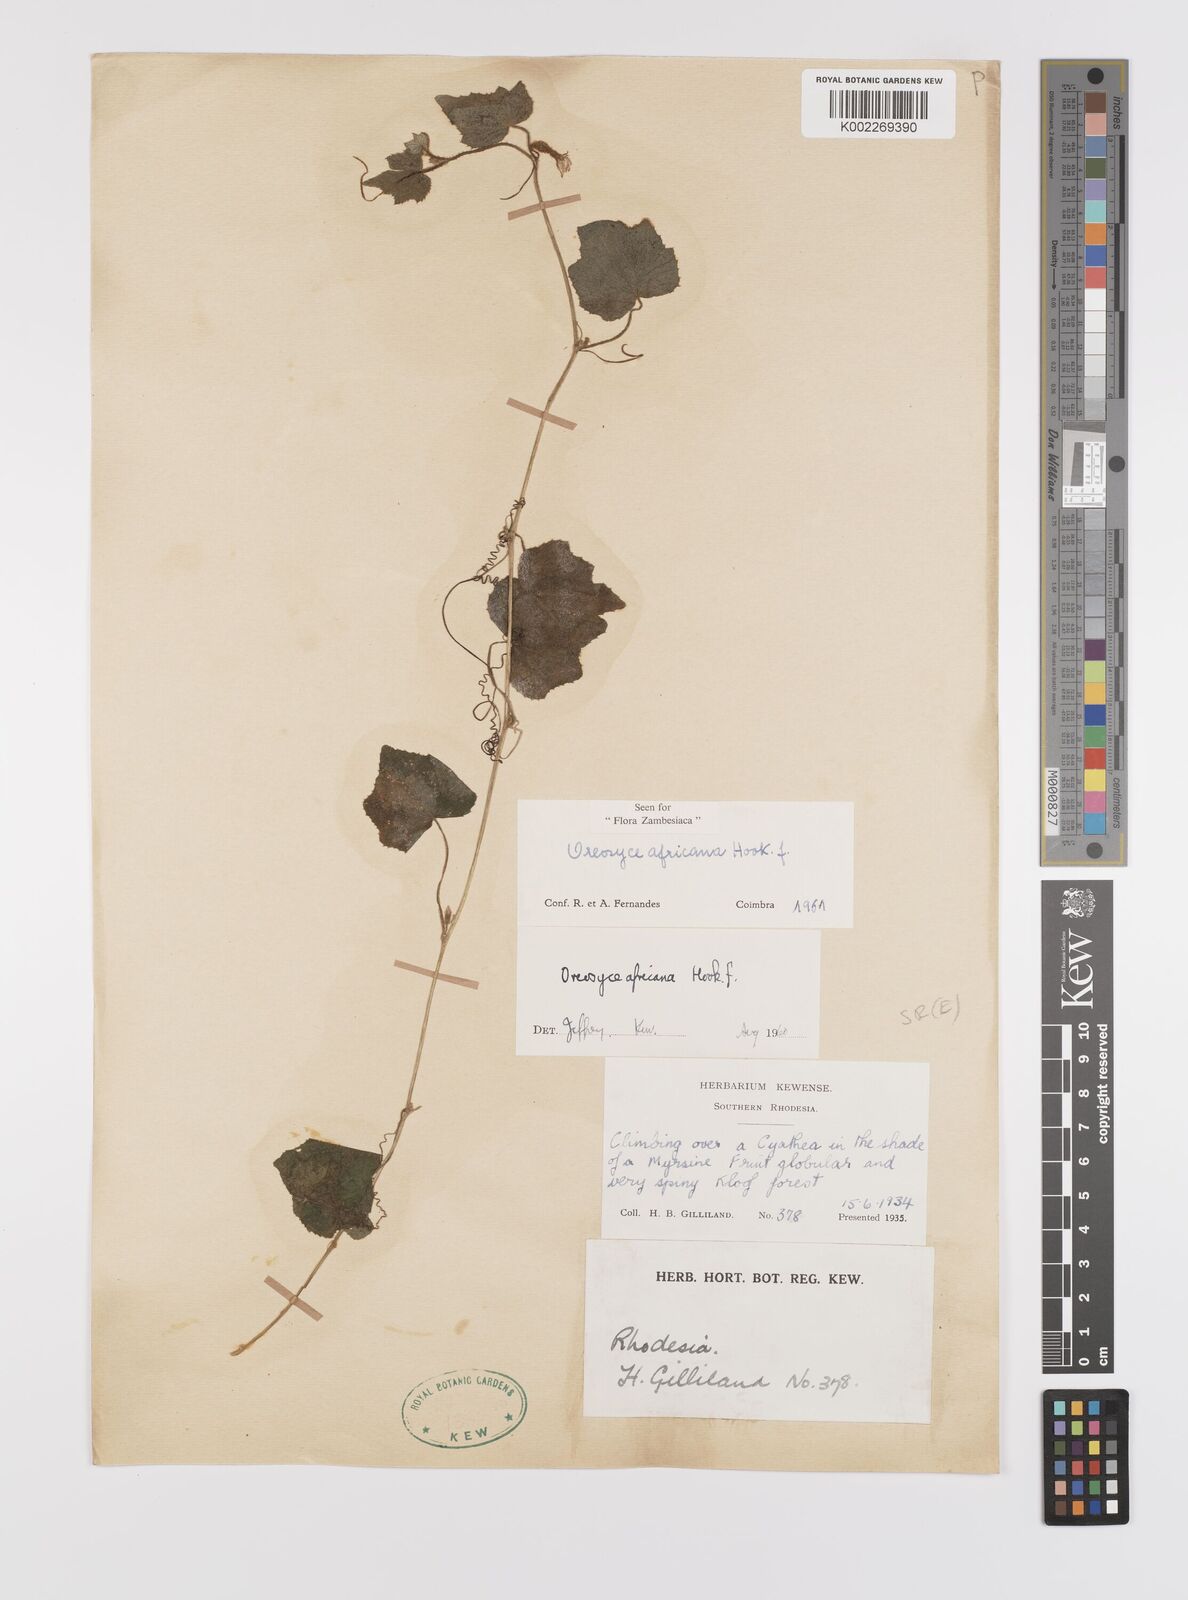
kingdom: Plantae
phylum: Tracheophyta
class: Magnoliopsida
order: Cucurbitales
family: Cucurbitaceae
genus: Cucumis
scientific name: Cucumis oreosyce
